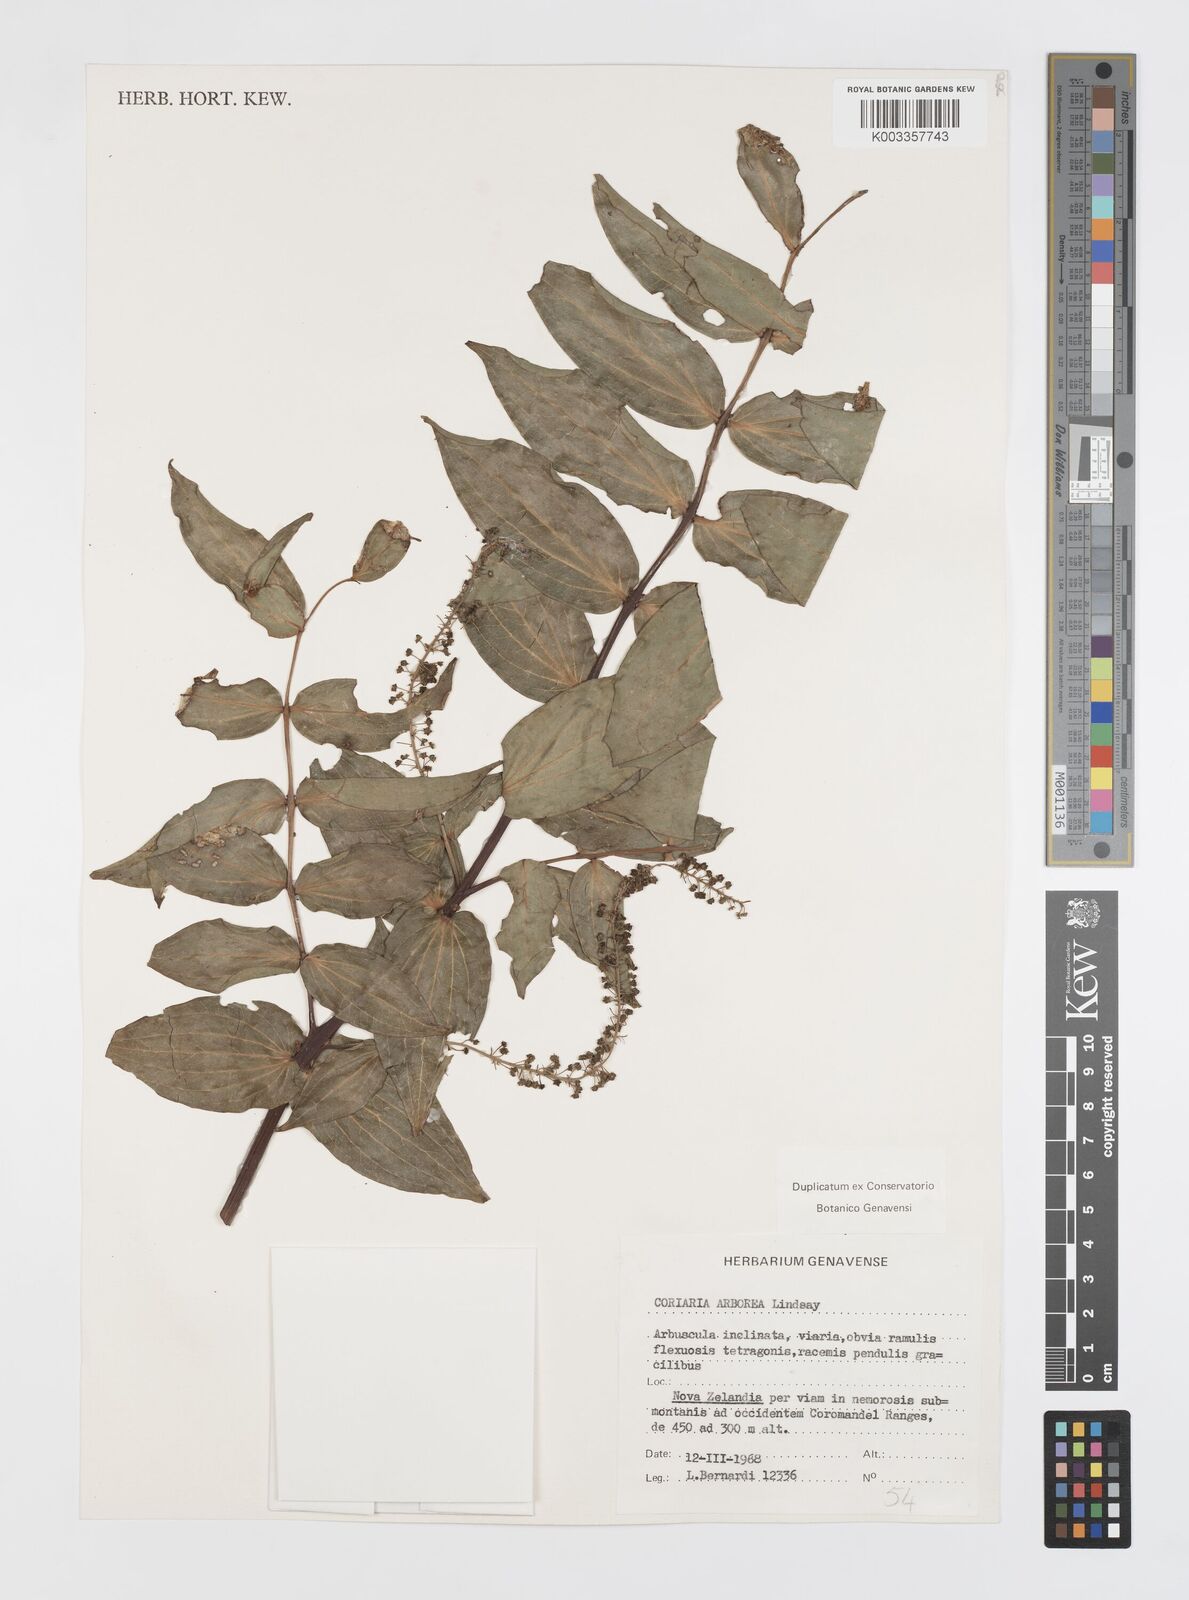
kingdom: Plantae
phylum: Tracheophyta
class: Magnoliopsida
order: Cucurbitales
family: Coriariaceae
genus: Coriaria
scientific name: Coriaria arborea
